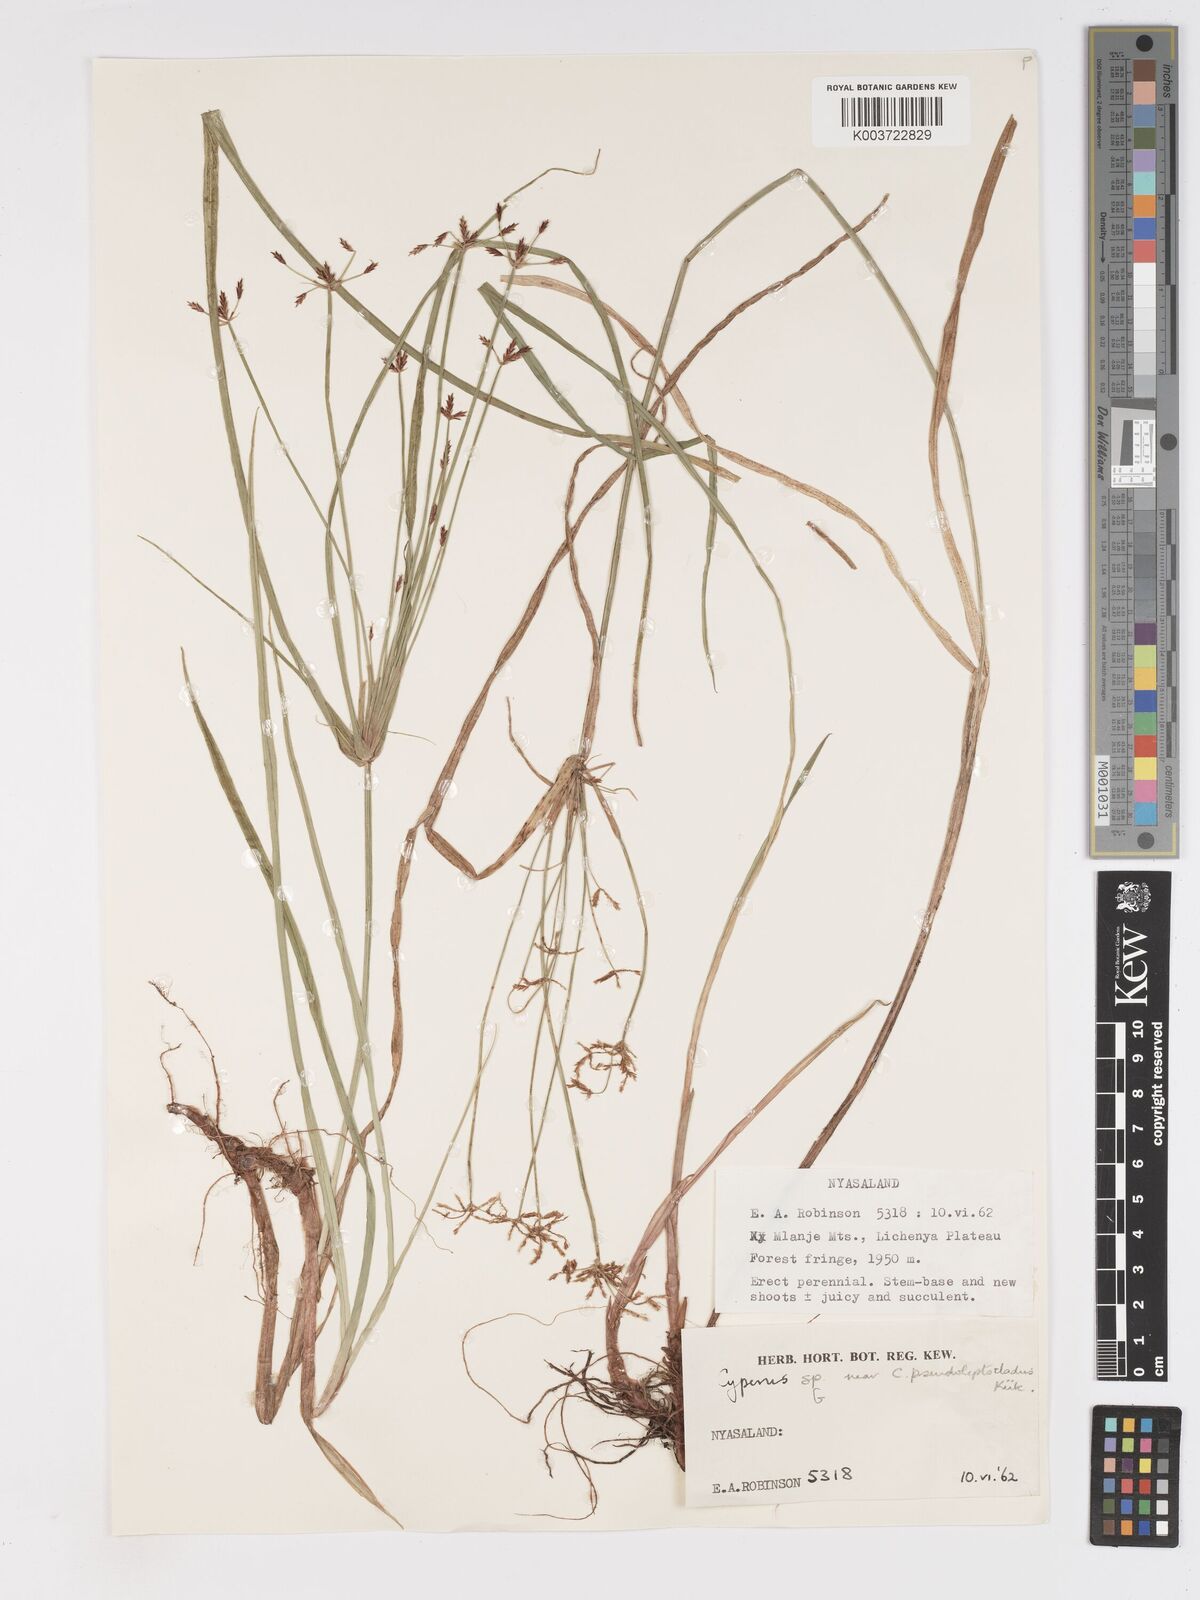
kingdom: Plantae
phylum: Tracheophyta
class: Liliopsida
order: Poales
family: Cyperaceae
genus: Cyperus
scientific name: Cyperus glaucophyllus
